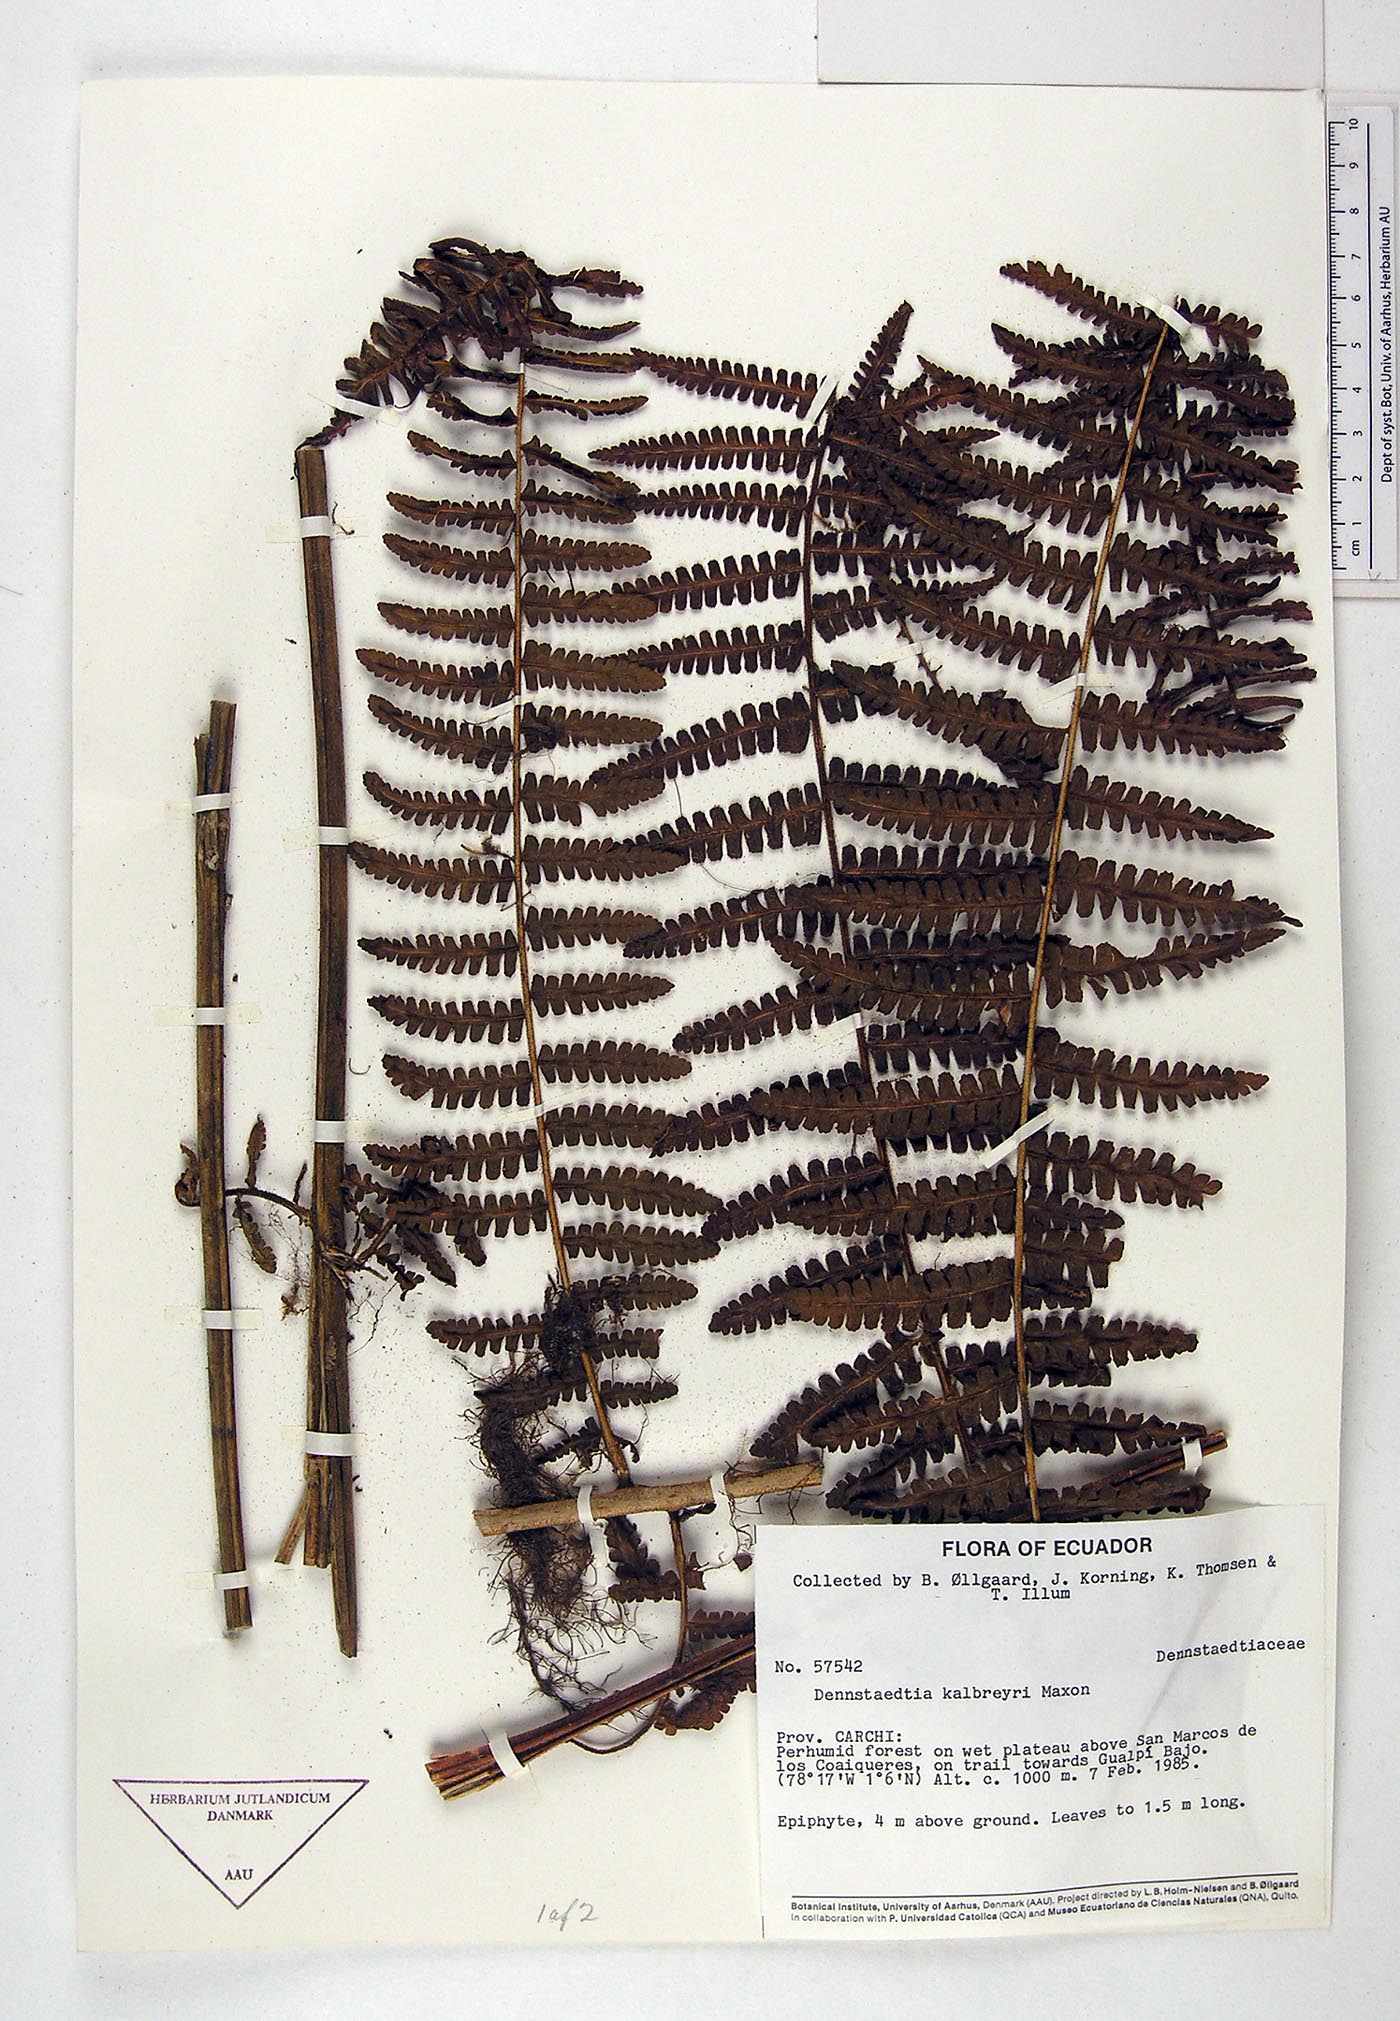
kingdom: Plantae
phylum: Tracheophyta
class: Polypodiopsida
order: Polypodiales
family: Dennstaedtiaceae
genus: Dennstaedtia
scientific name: Dennstaedtia obtusifolia
